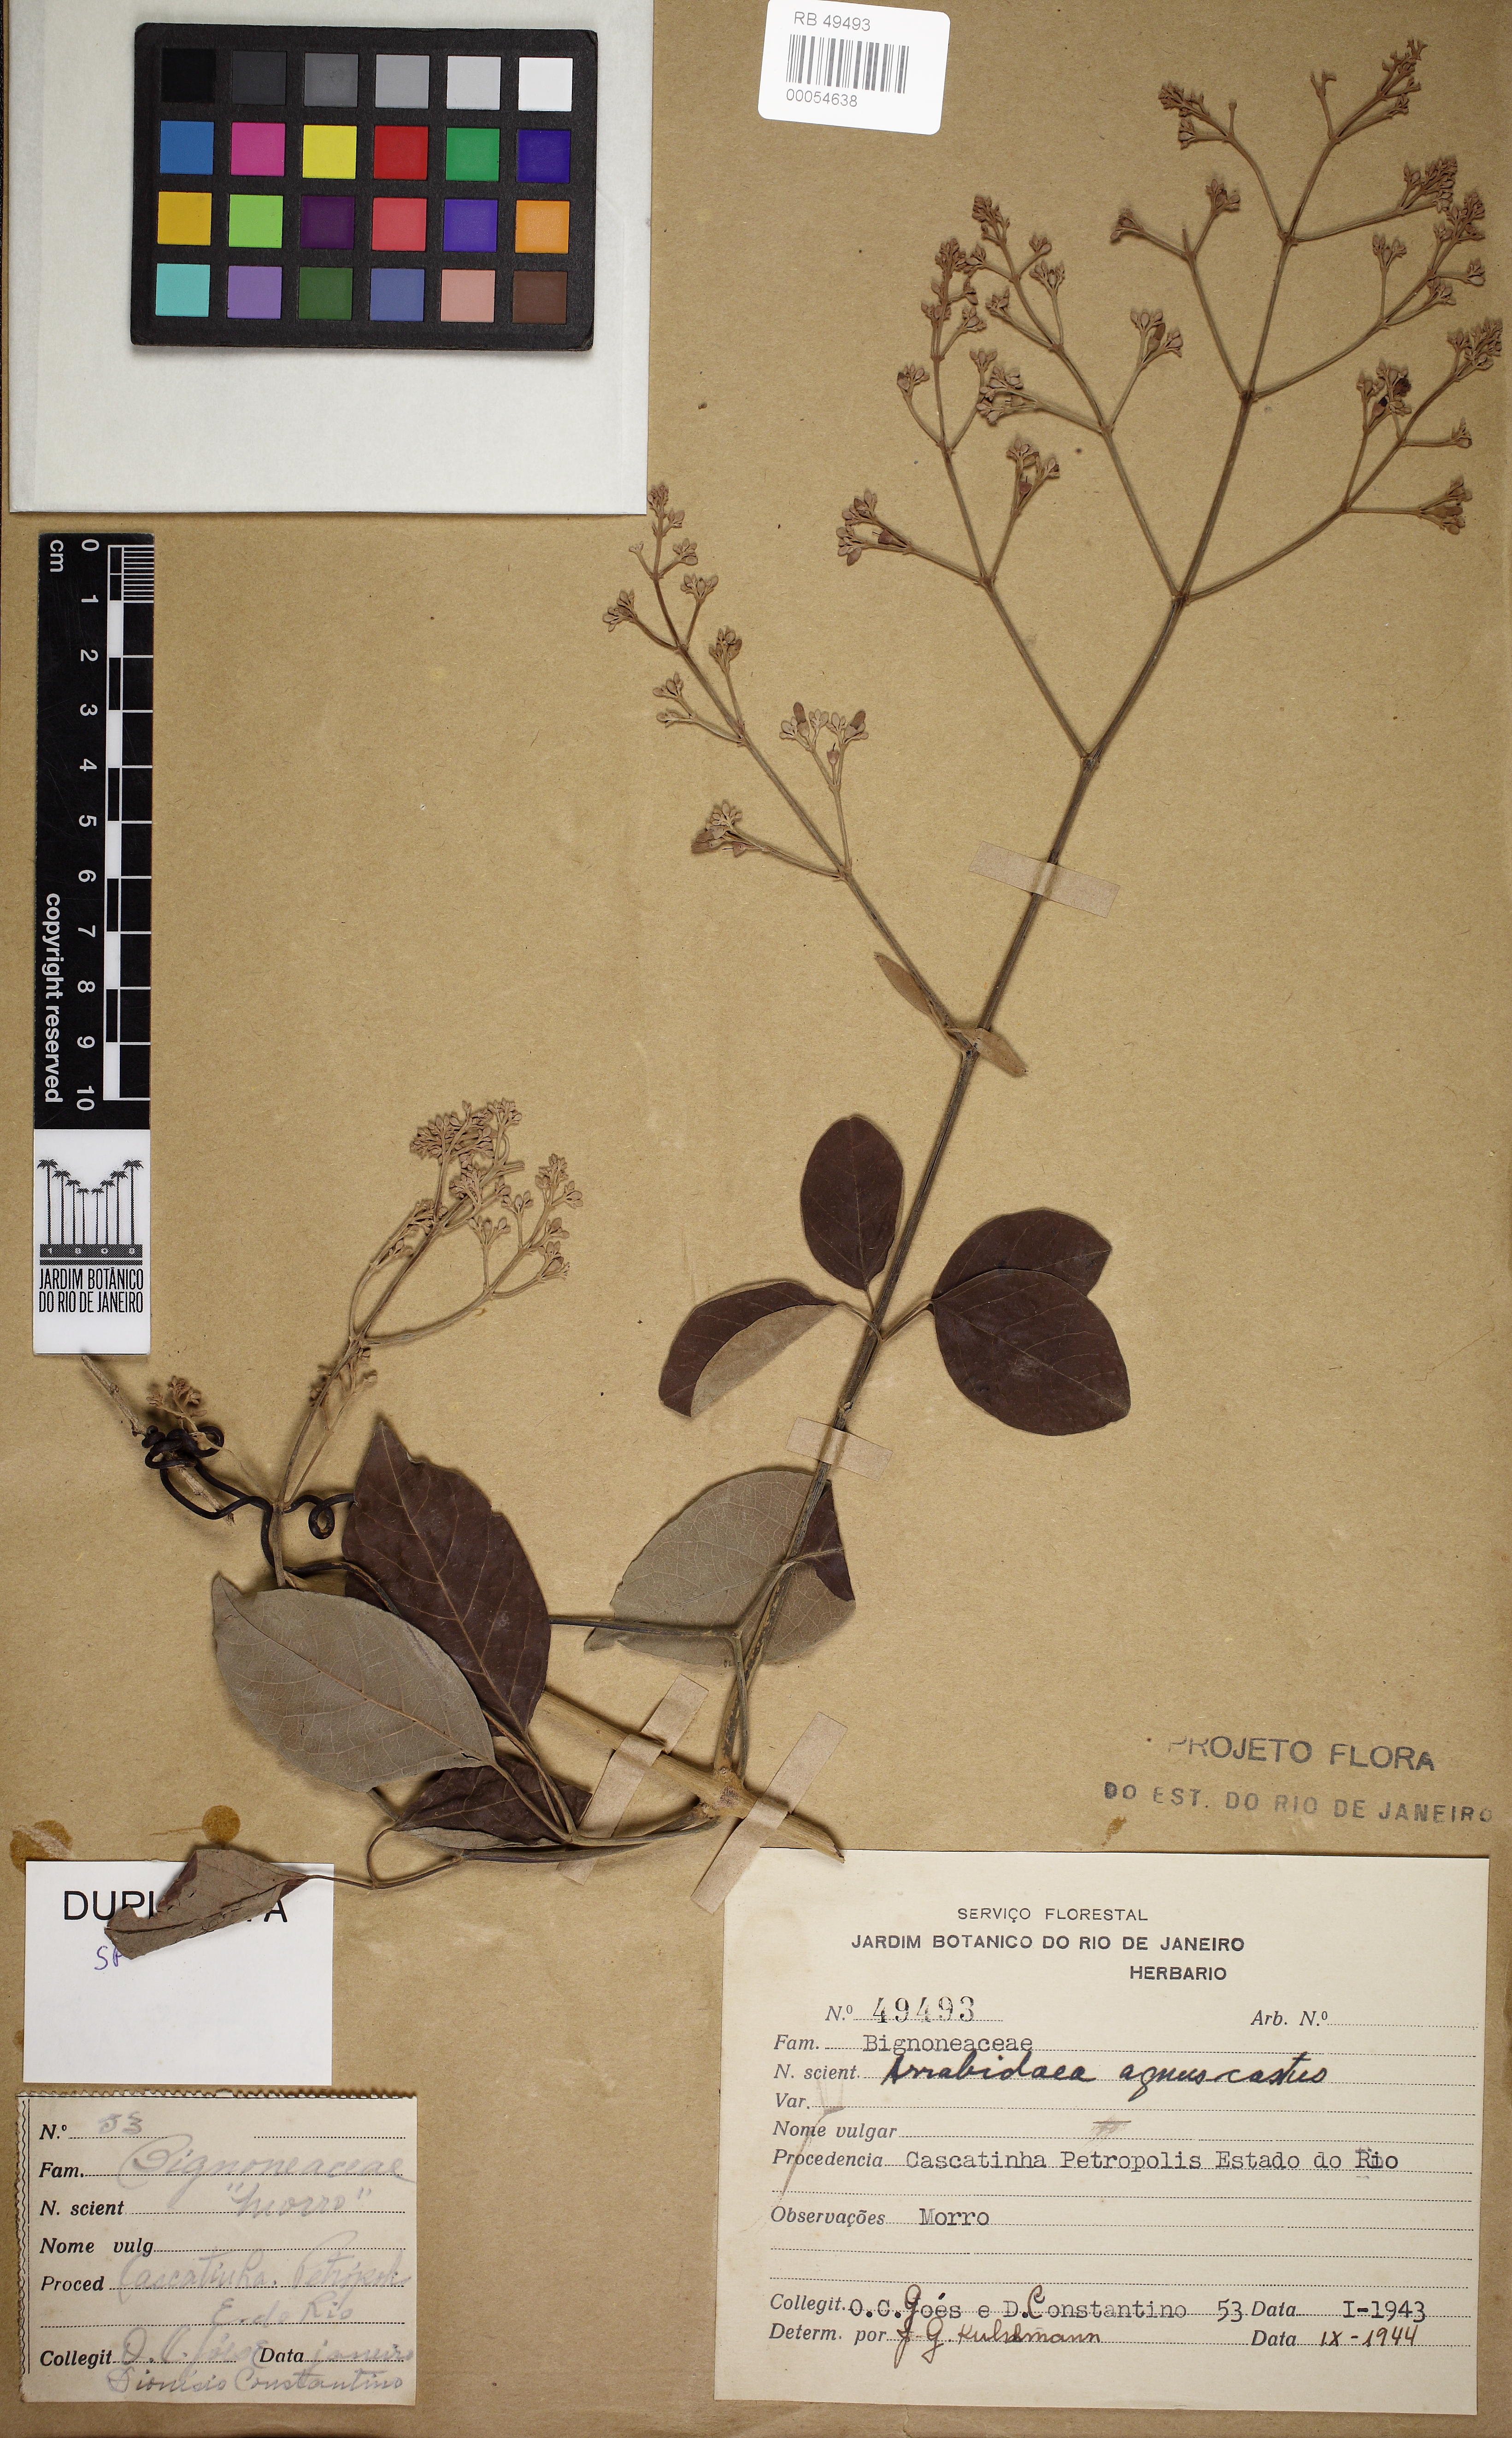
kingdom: Plantae
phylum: Tracheophyta
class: Magnoliopsida
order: Lamiales
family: Bignoniaceae
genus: Fridericia
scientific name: Fridericia rego
